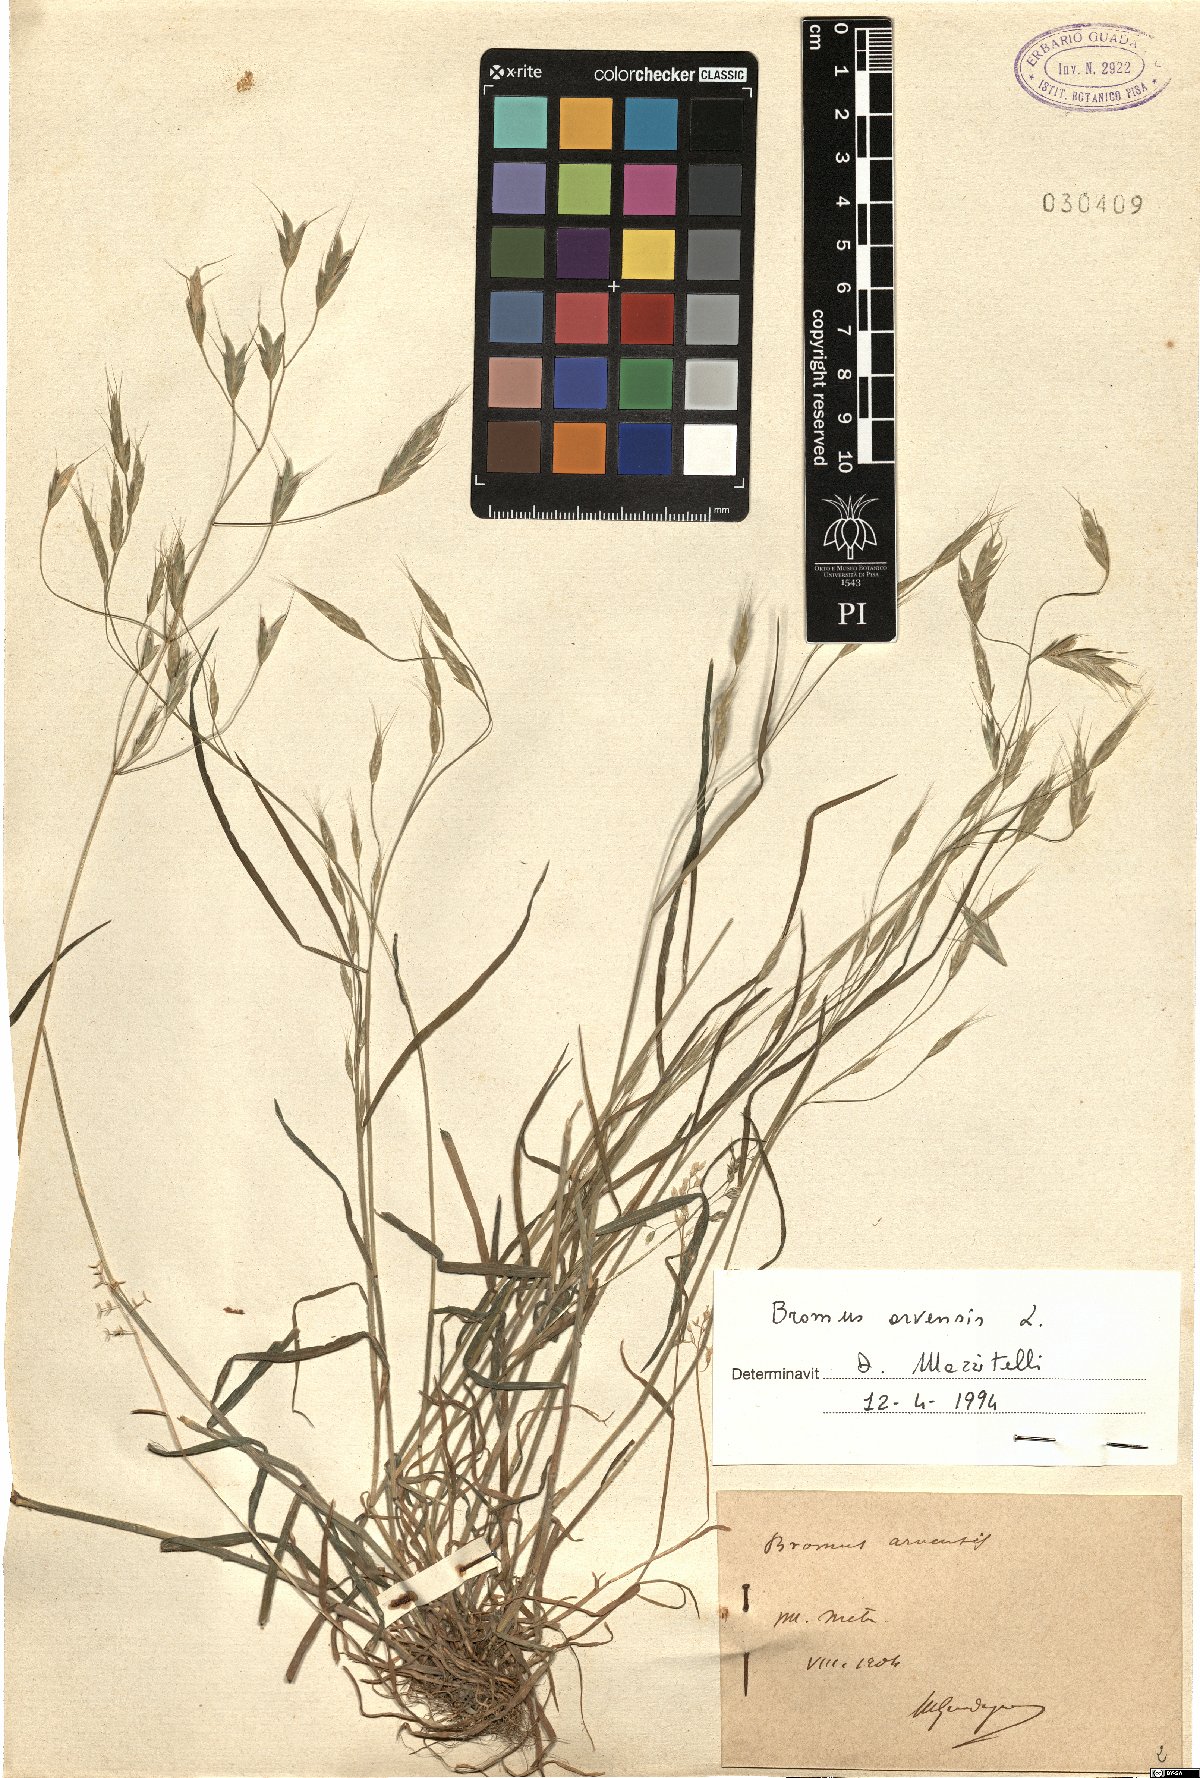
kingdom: Plantae
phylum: Tracheophyta
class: Liliopsida
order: Poales
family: Poaceae
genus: Bromus
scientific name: Bromus arvensis
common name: Field brome
